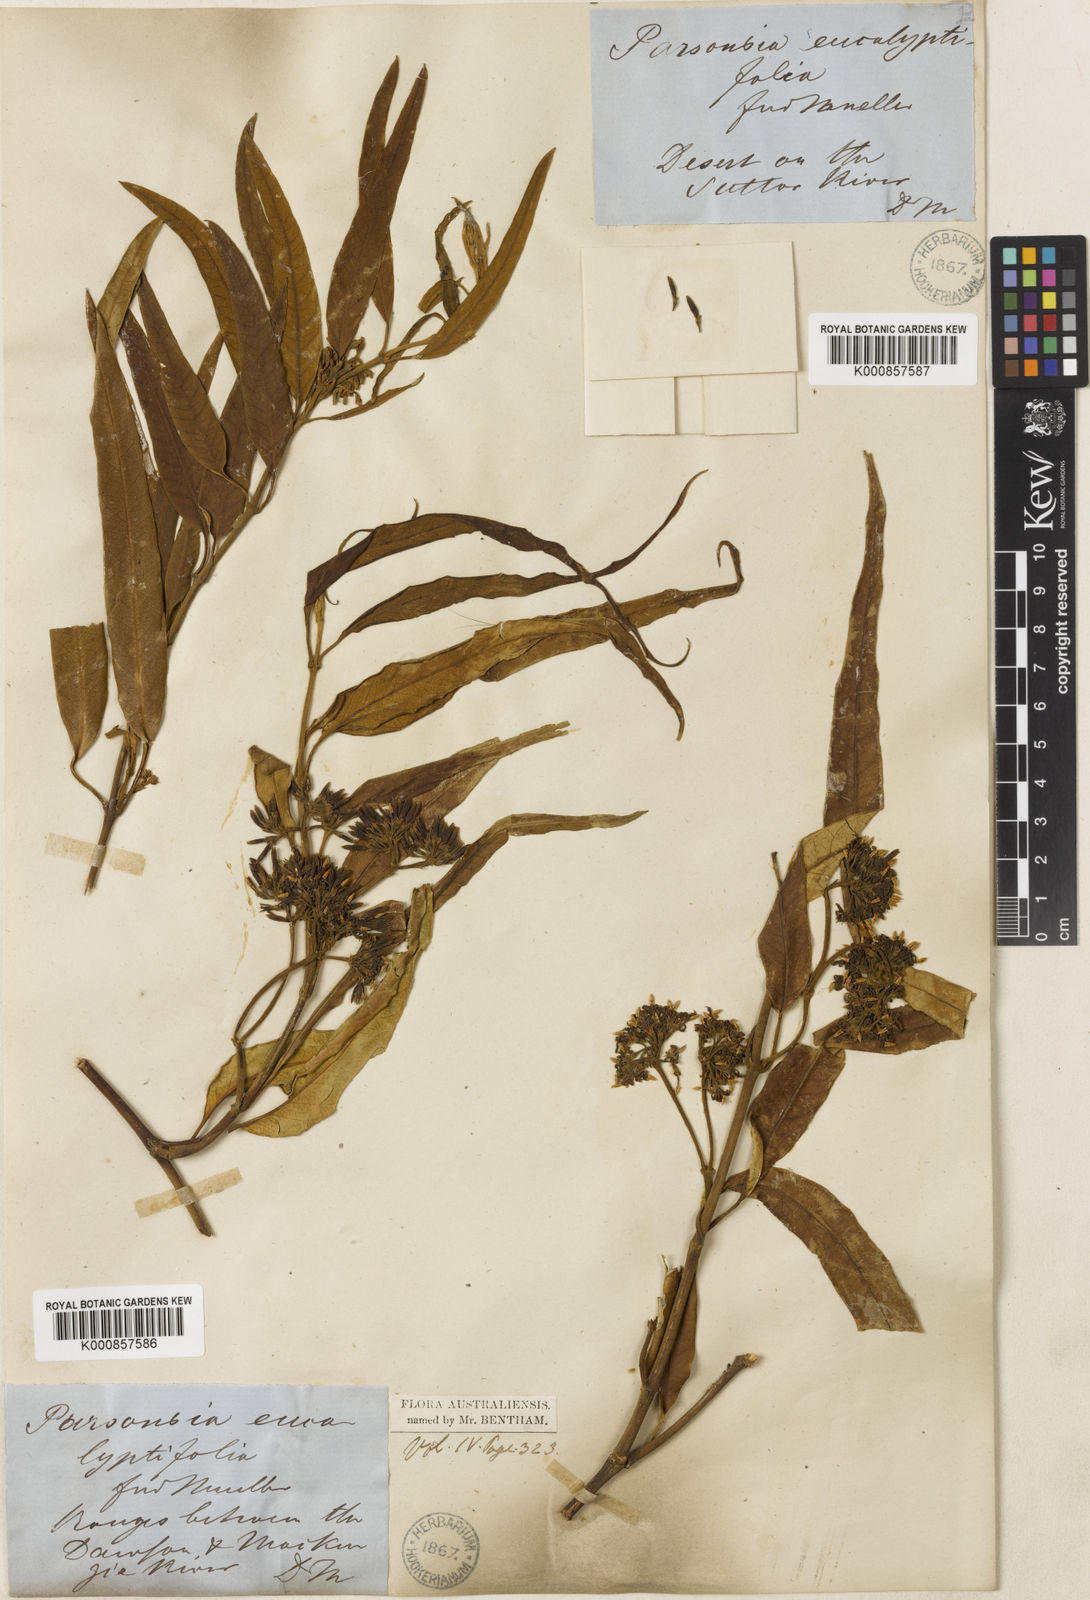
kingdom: Plantae
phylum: Tracheophyta
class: Magnoliopsida
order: Gentianales
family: Apocynaceae
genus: Parsonsia
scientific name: Parsonsia eucalyptophylla
